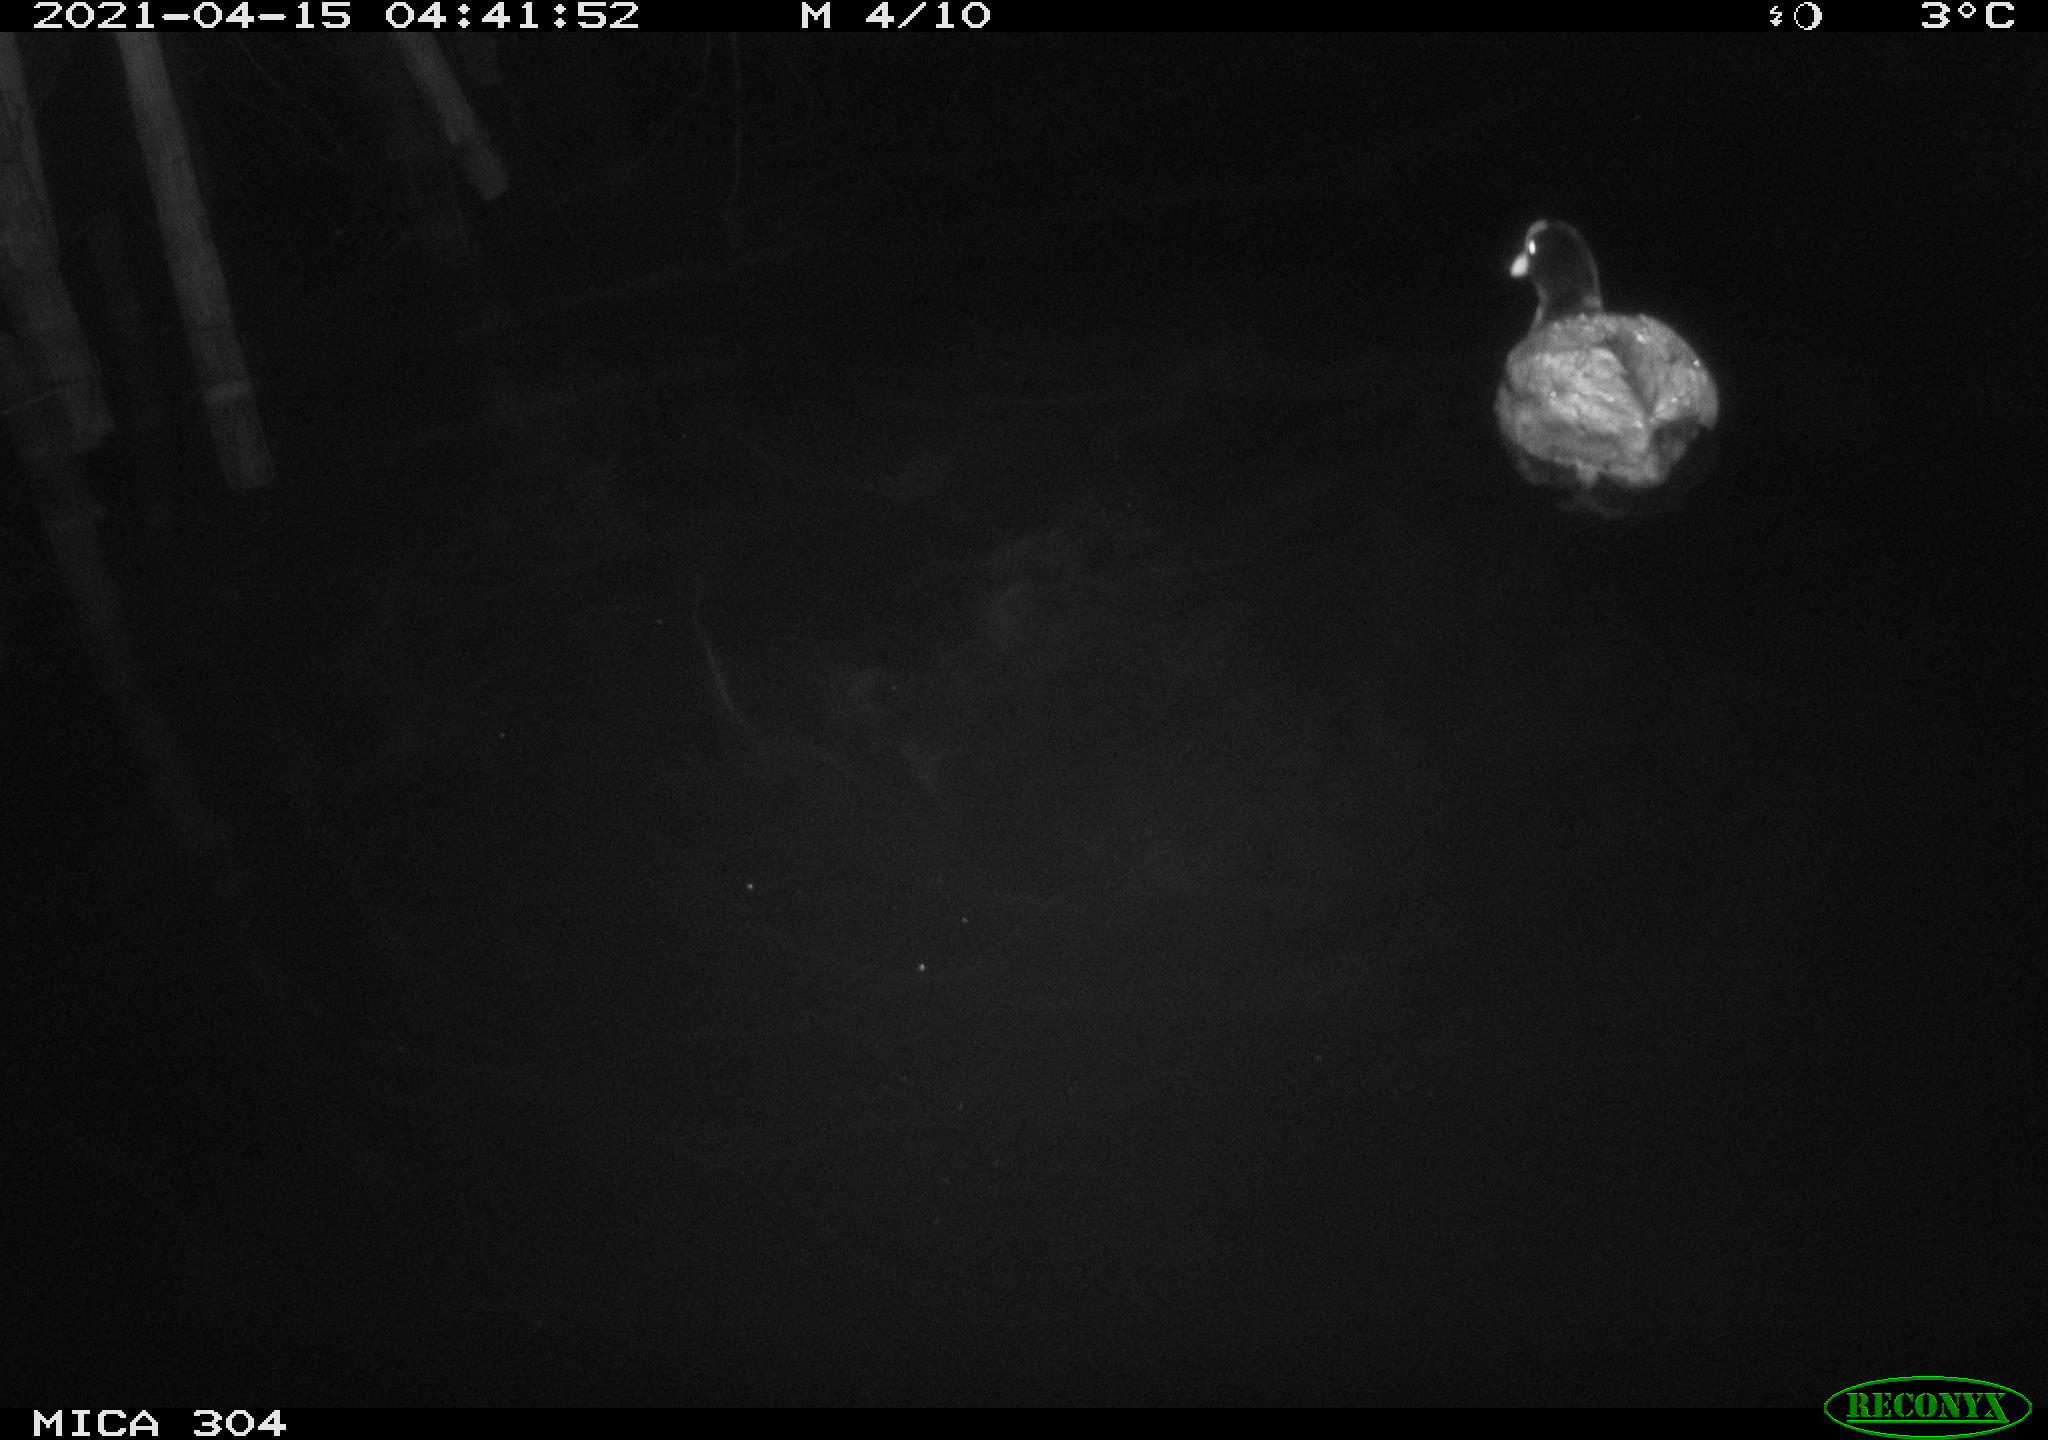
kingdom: Animalia
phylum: Chordata
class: Aves
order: Anseriformes
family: Anatidae
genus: Anas
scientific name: Anas
